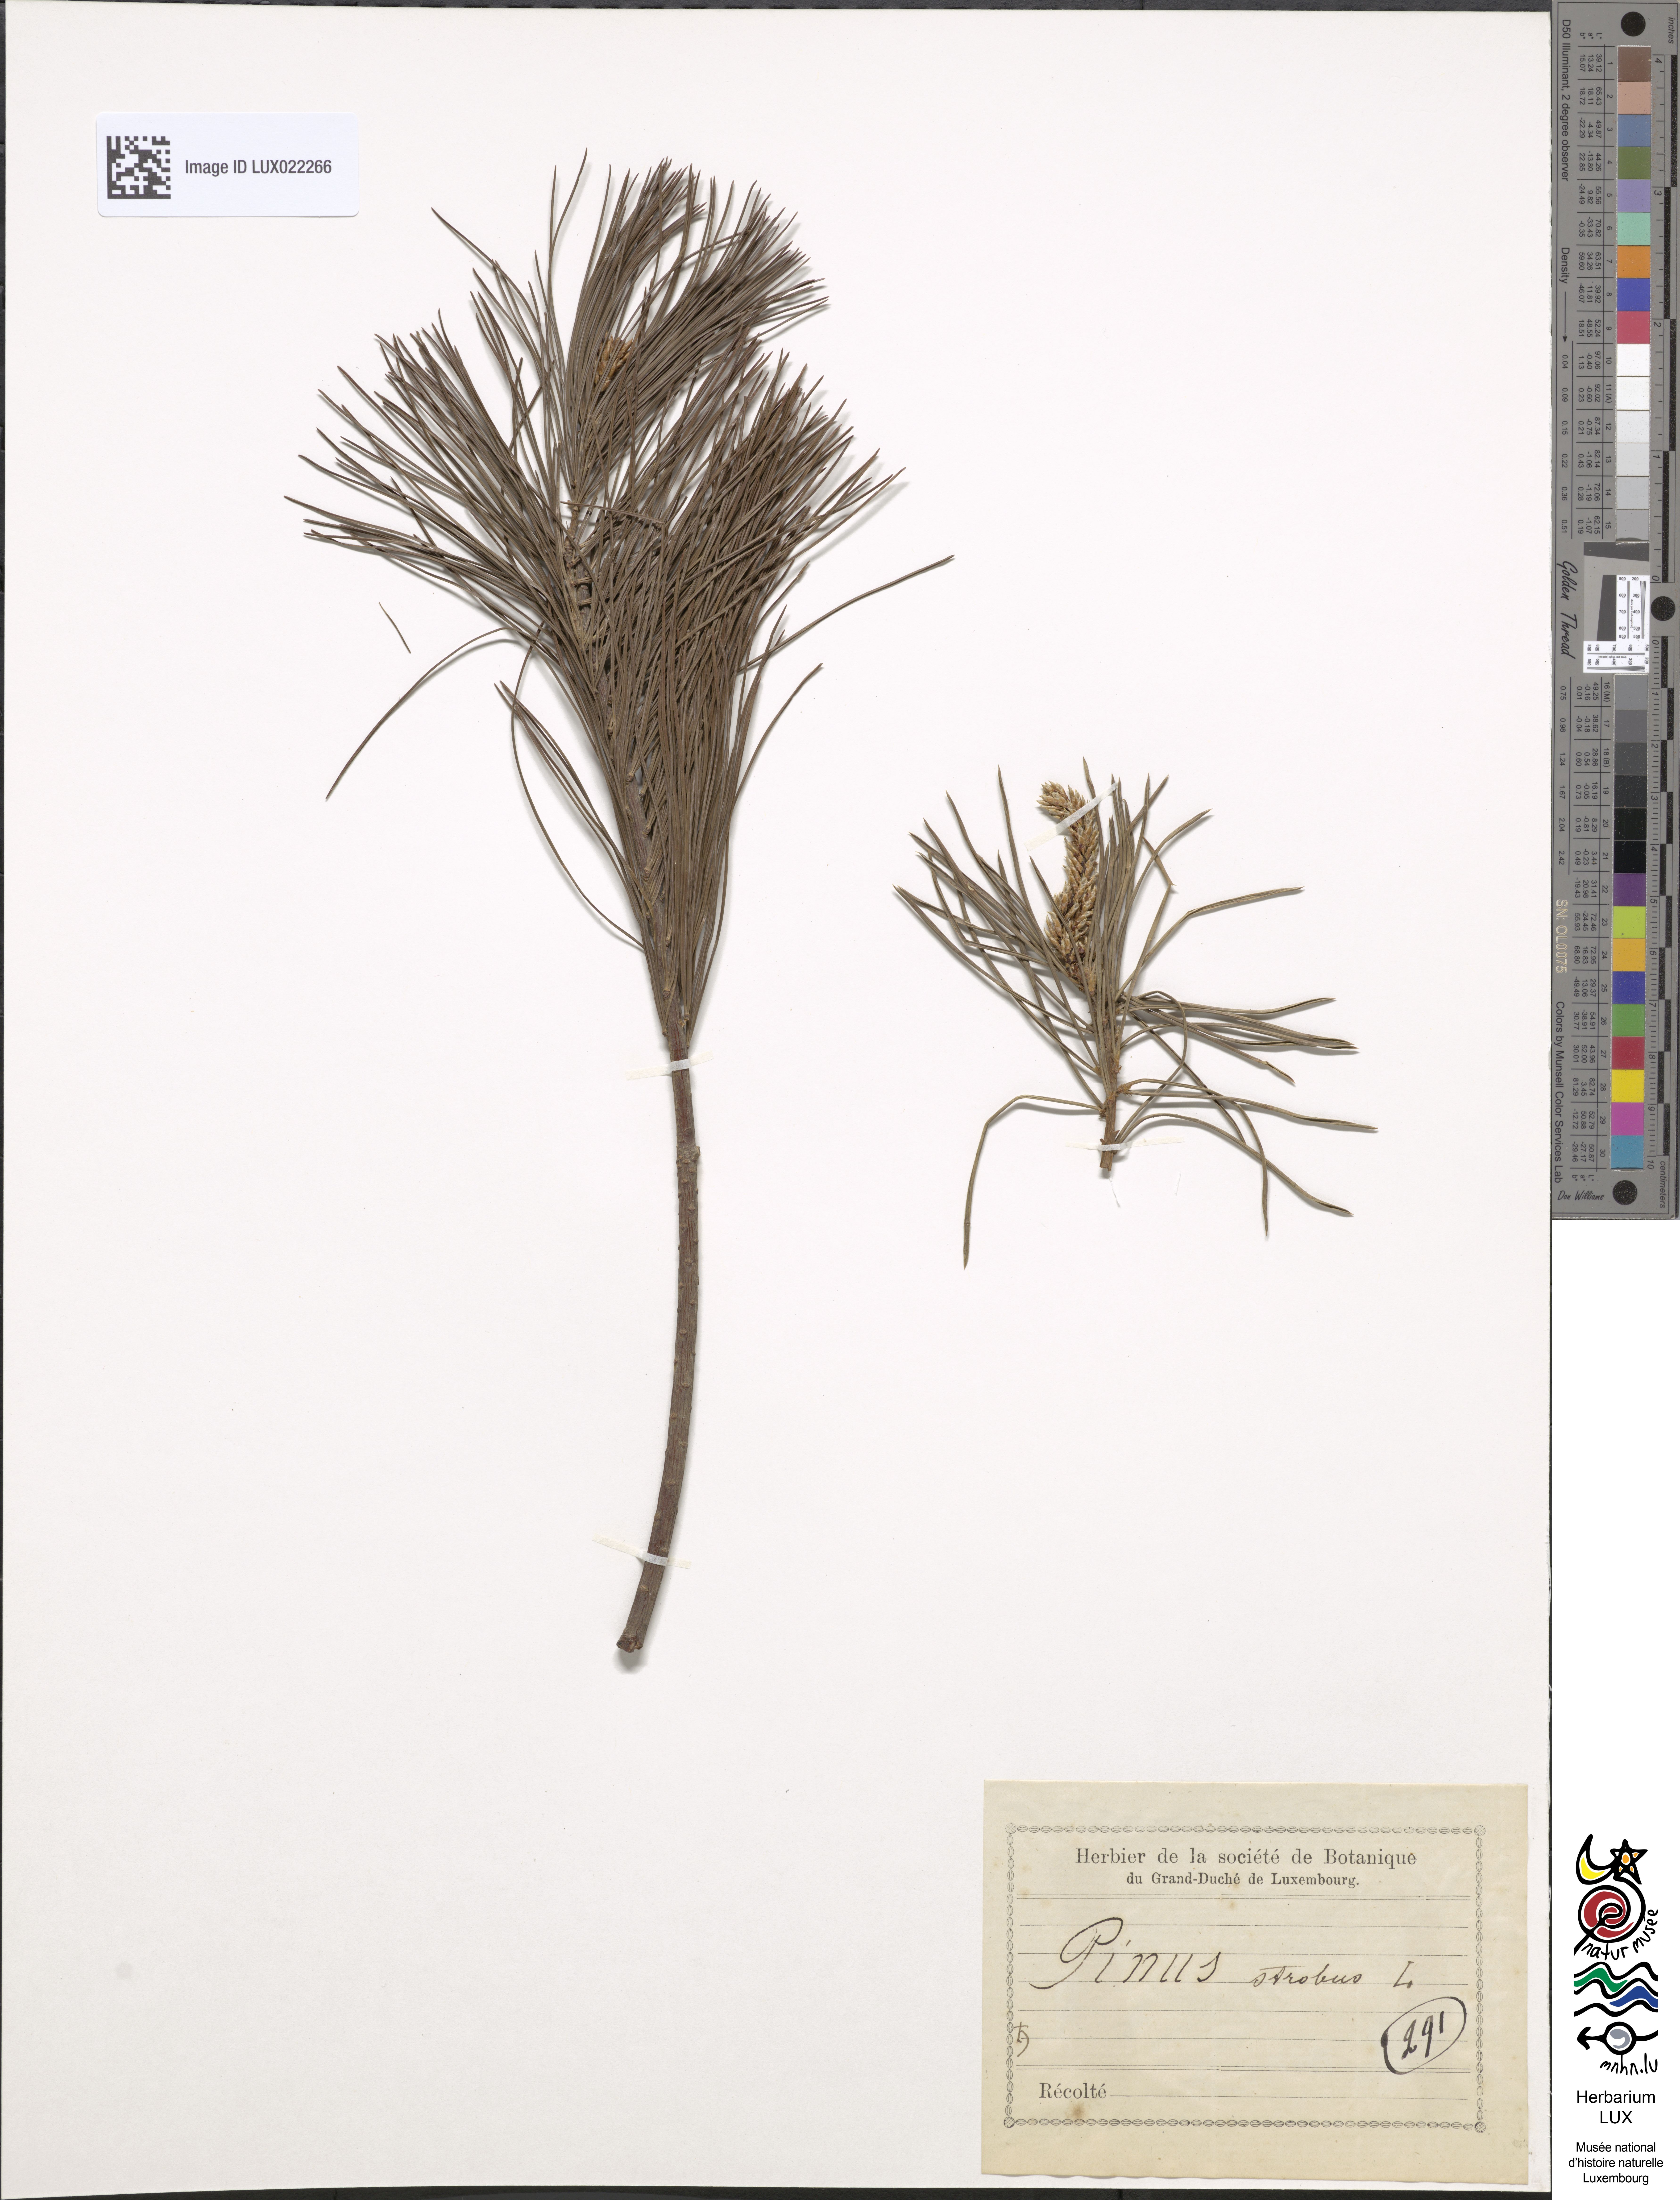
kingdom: Plantae
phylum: Tracheophyta
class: Pinopsida
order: Pinales
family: Pinaceae
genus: Pinus
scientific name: Pinus strobus
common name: Weymouth pine
